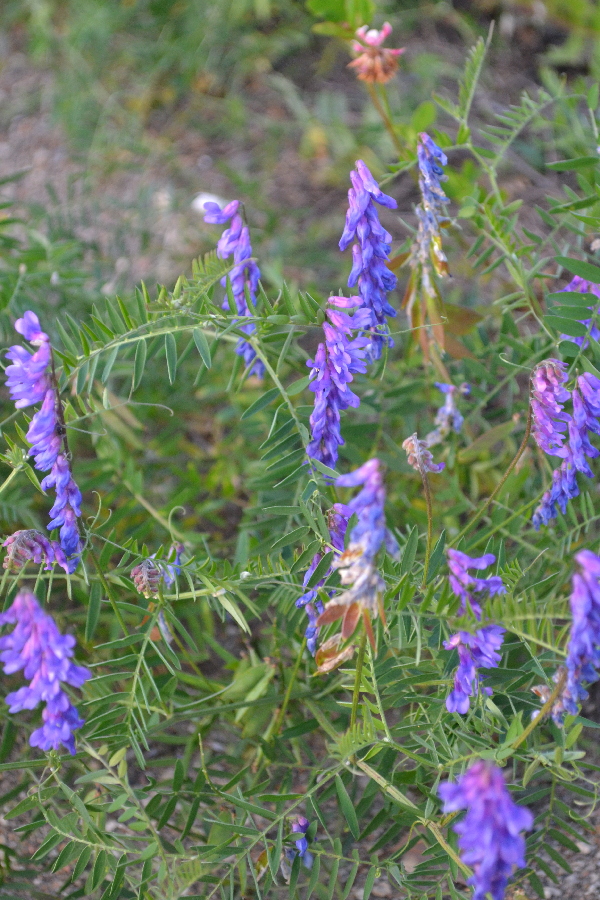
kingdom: Plantae
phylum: Tracheophyta
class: Magnoliopsida
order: Fabales
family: Fabaceae
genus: Vicia
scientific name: Vicia cracca
